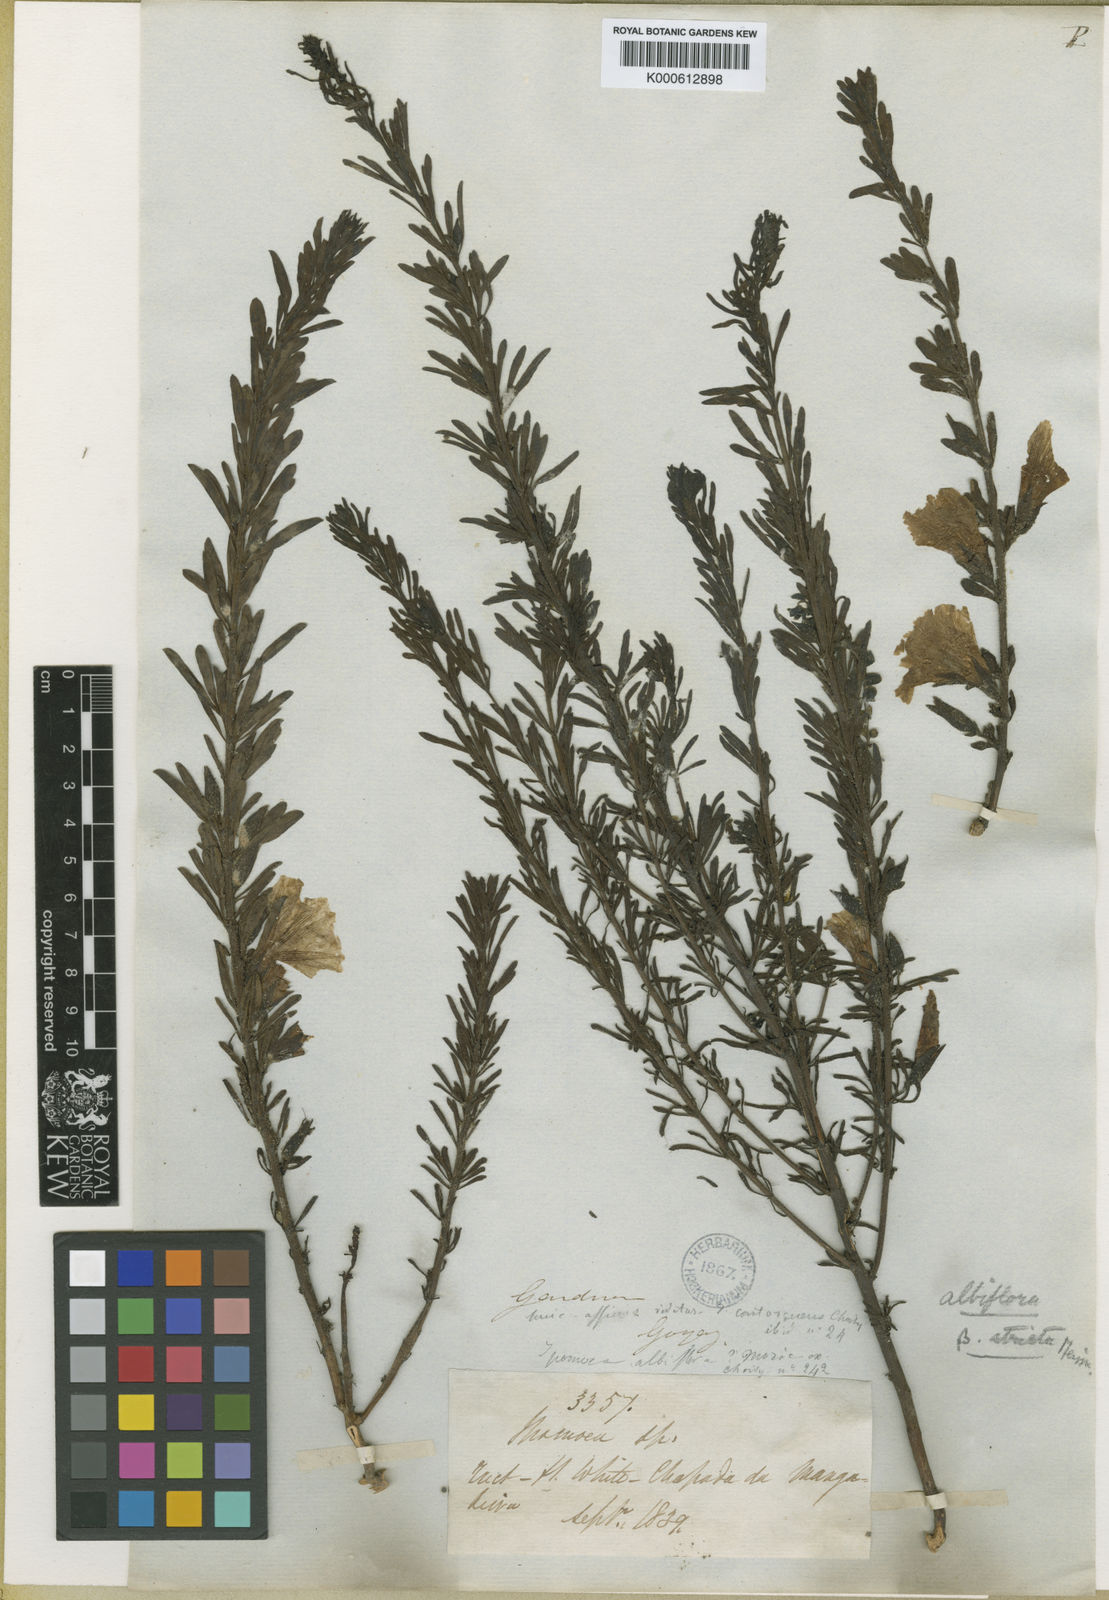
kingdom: Plantae
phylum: Tracheophyta
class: Magnoliopsida
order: Solanales
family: Convolvulaceae
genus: Distimake
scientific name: Distimake ericoides
